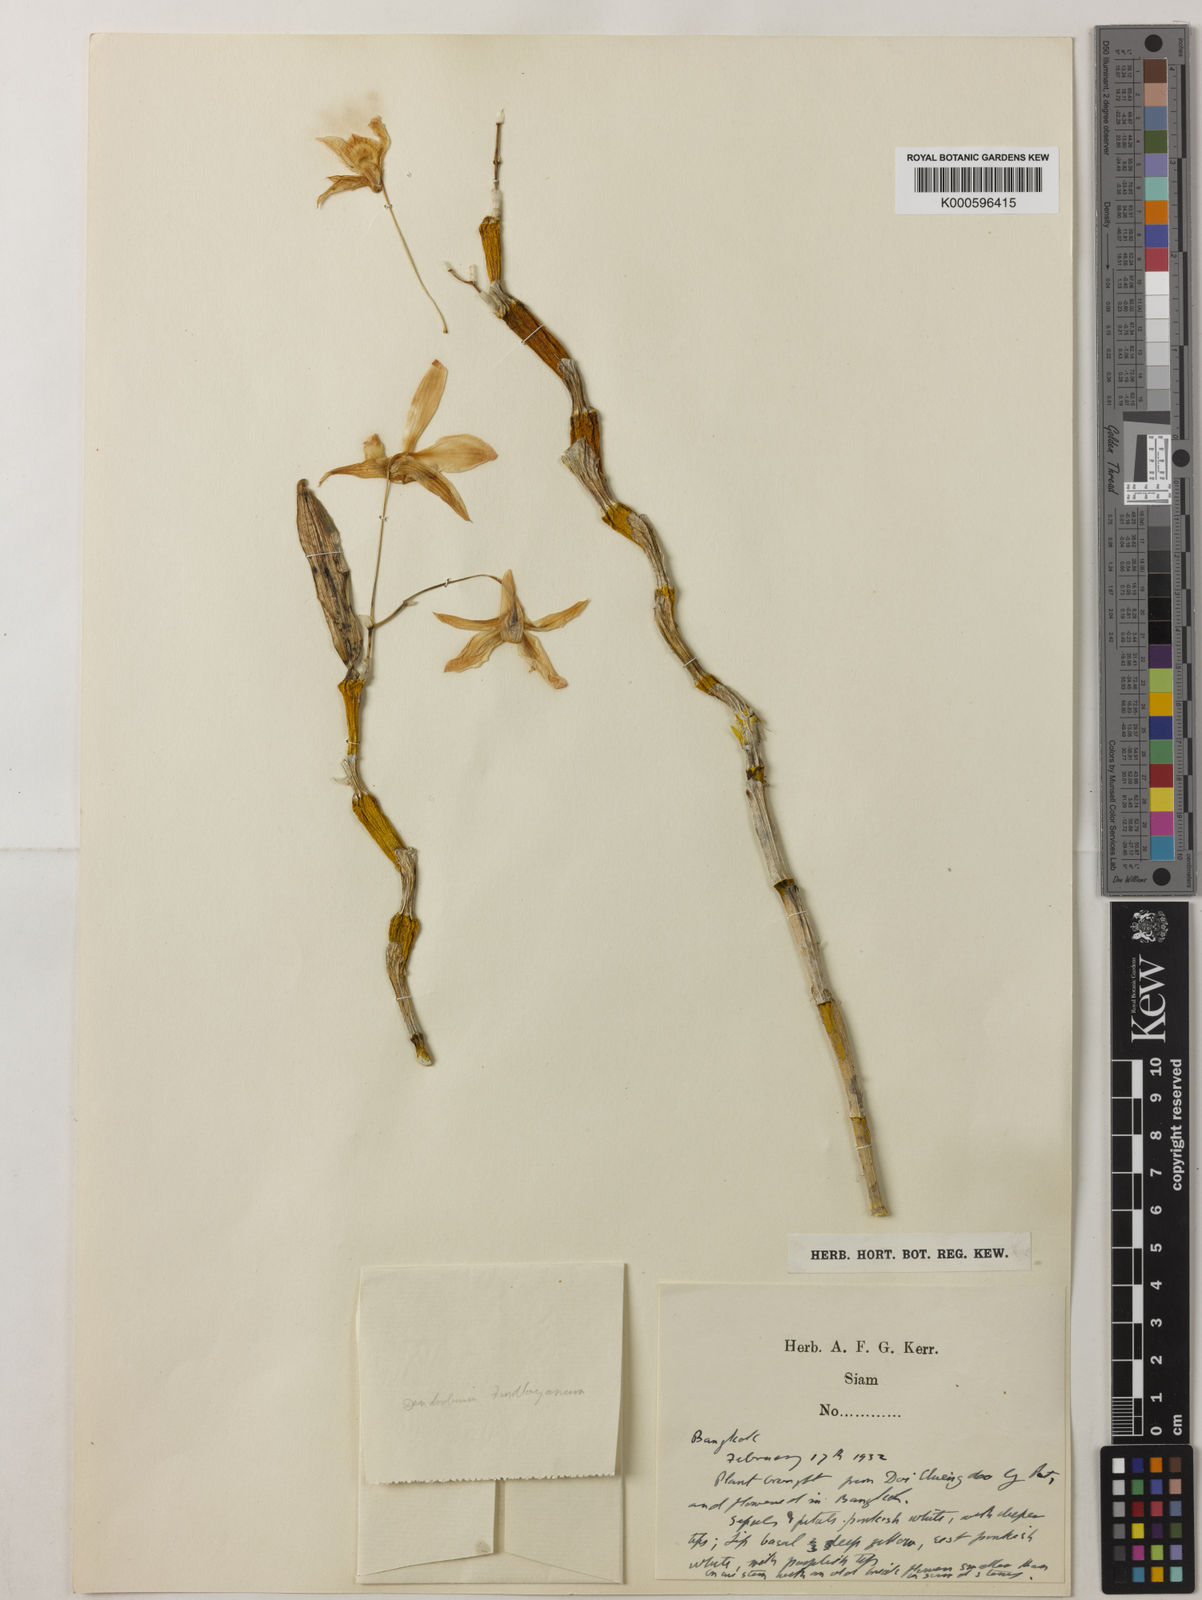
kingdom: Plantae
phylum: Tracheophyta
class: Liliopsida
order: Asparagales
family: Orchidaceae
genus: Dendrobium
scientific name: Dendrobium findlayanum
